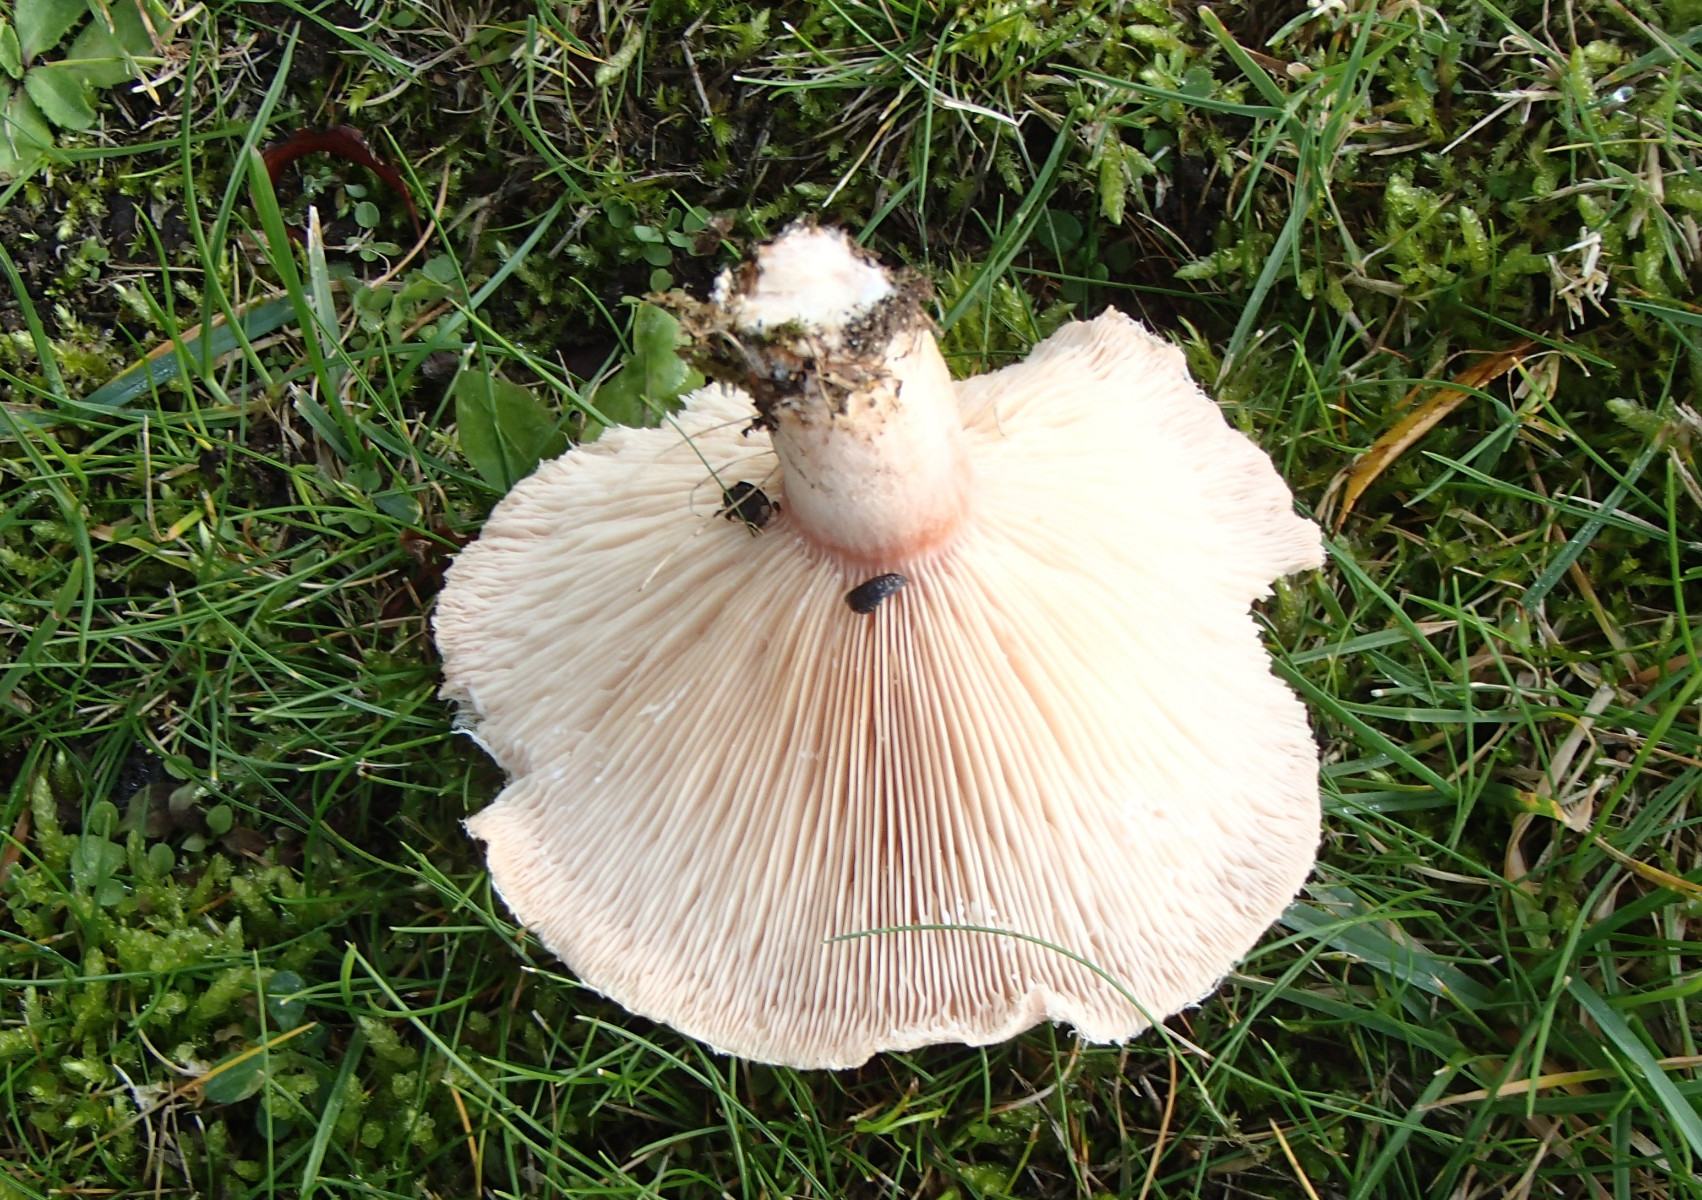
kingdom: Fungi
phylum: Basidiomycota
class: Agaricomycetes
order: Russulales
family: Russulaceae
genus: Lactarius
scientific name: Lactarius pubescens
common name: dunet mælkehat
